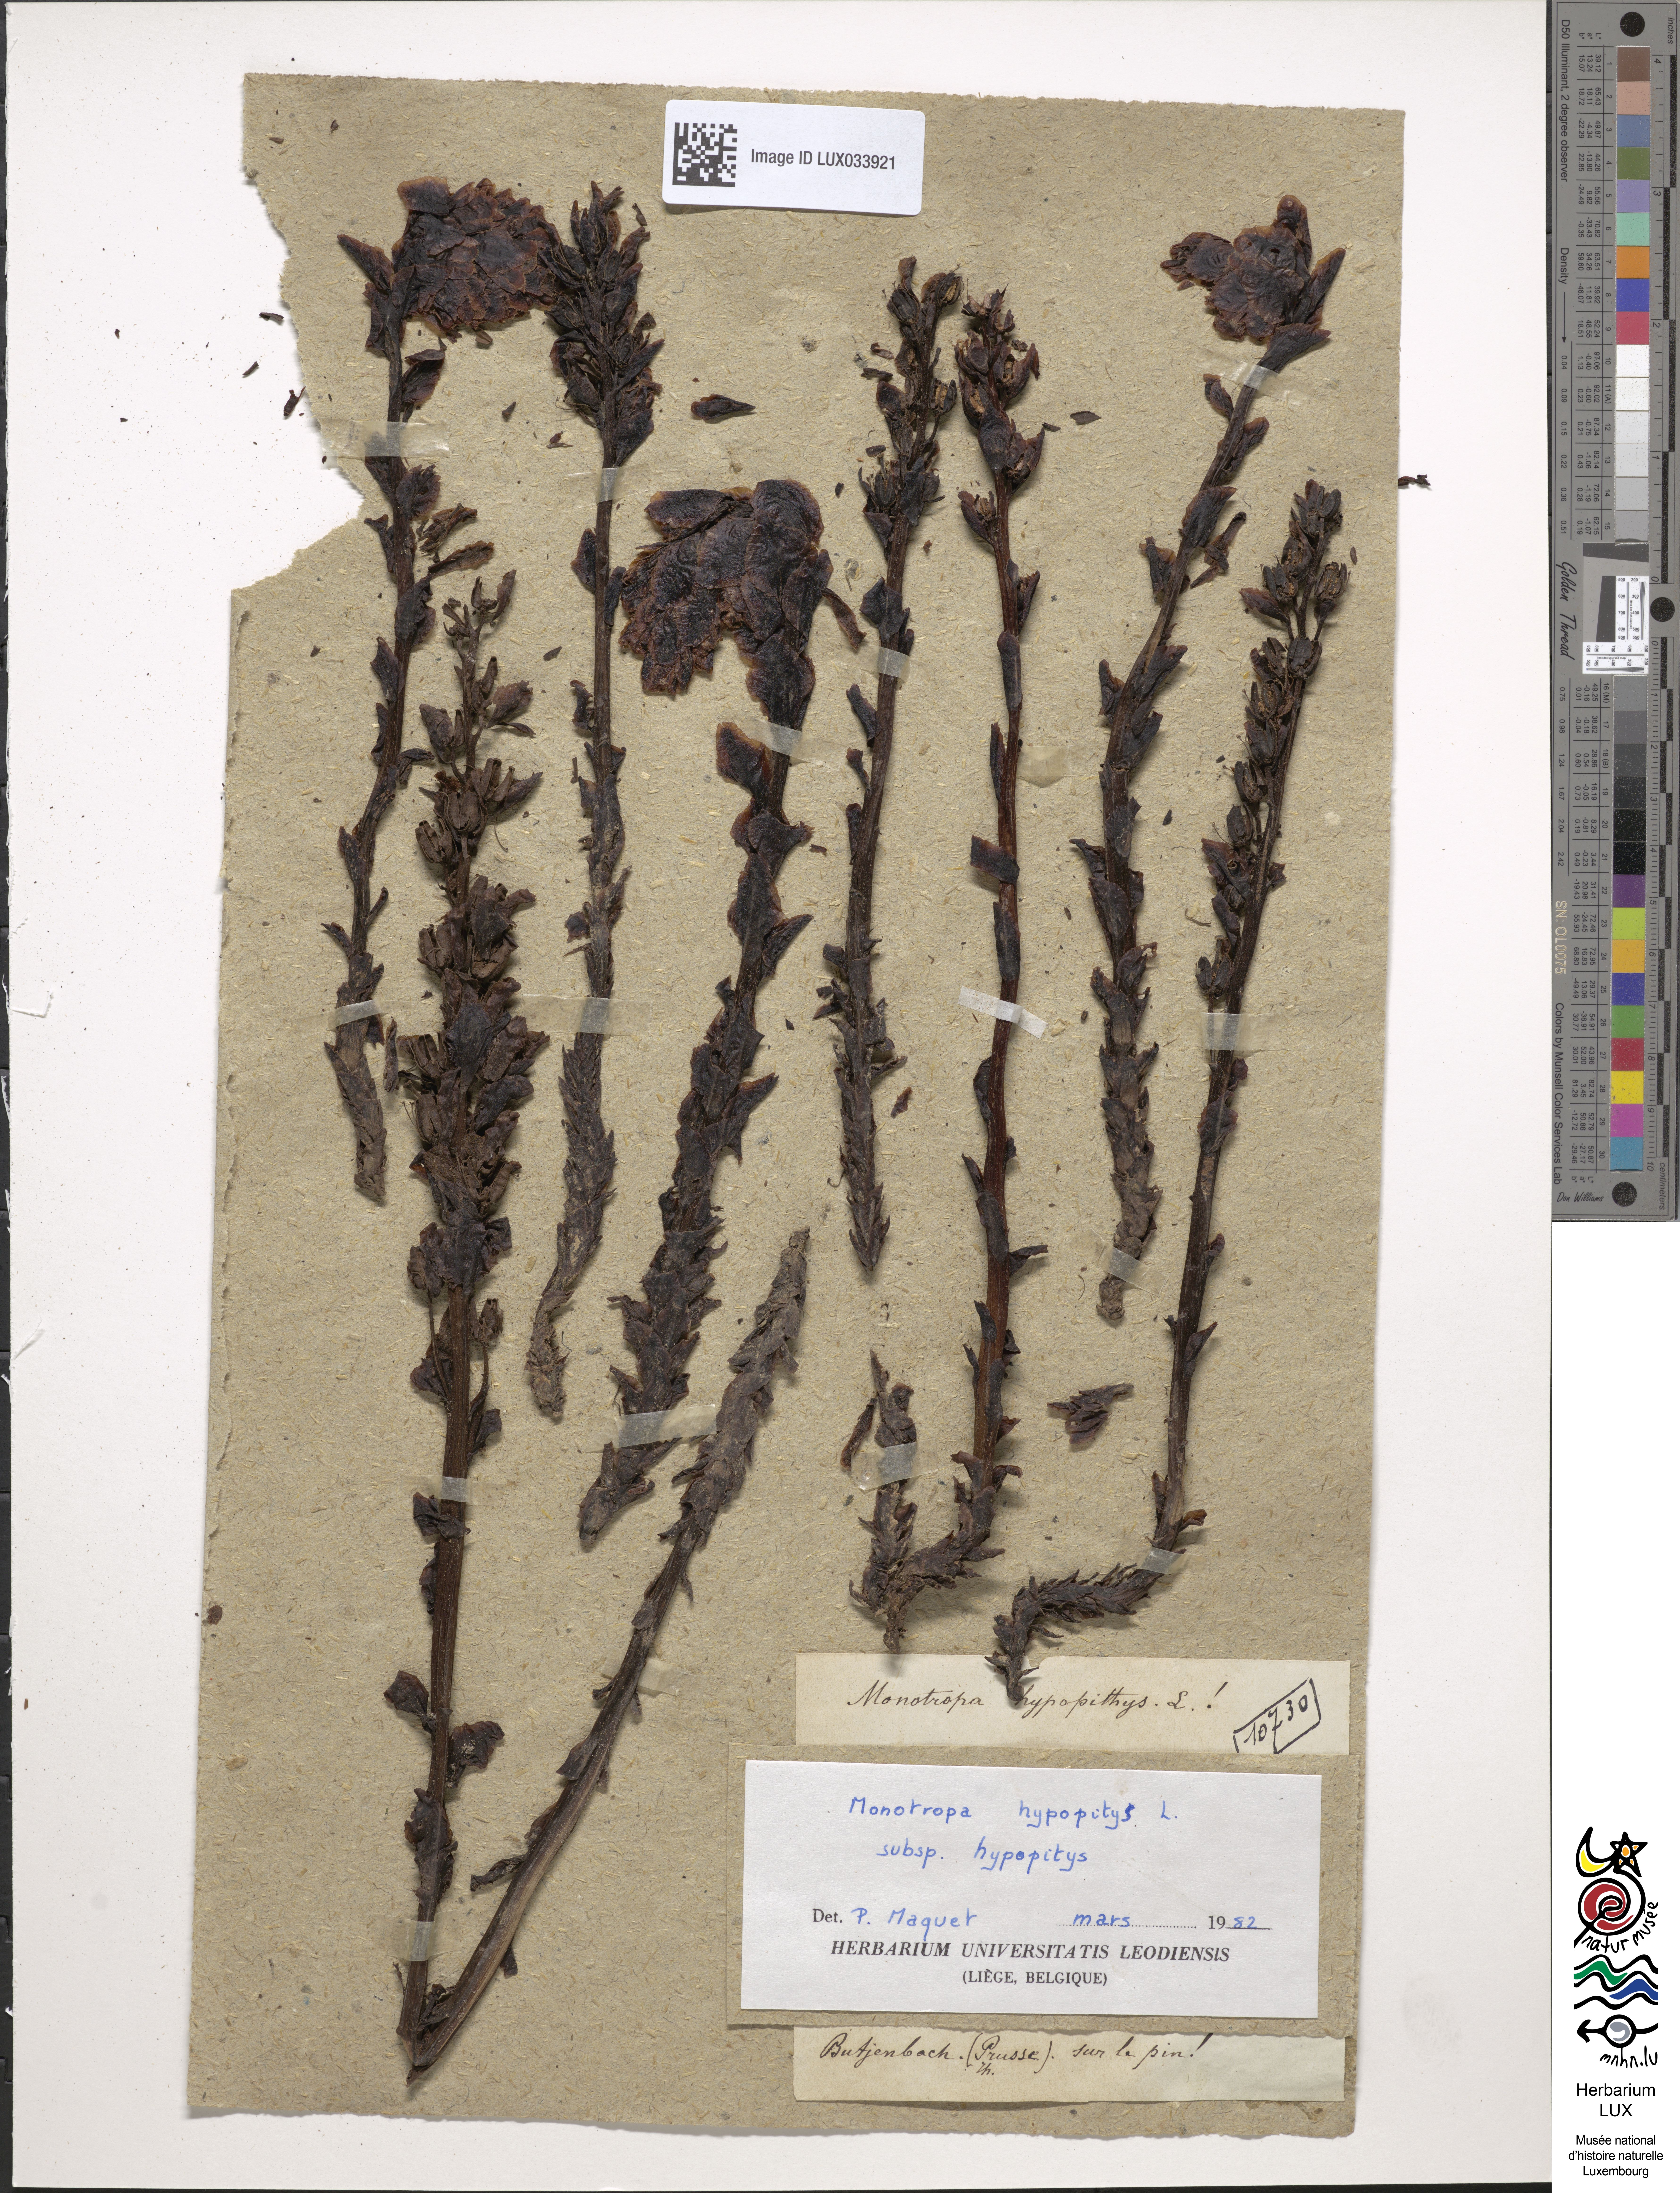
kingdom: Plantae
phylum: Tracheophyta
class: Magnoliopsida
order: Ericales
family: Ericaceae
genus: Hypopitys
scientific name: Hypopitys monotropa
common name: Yellow bird's-nest
